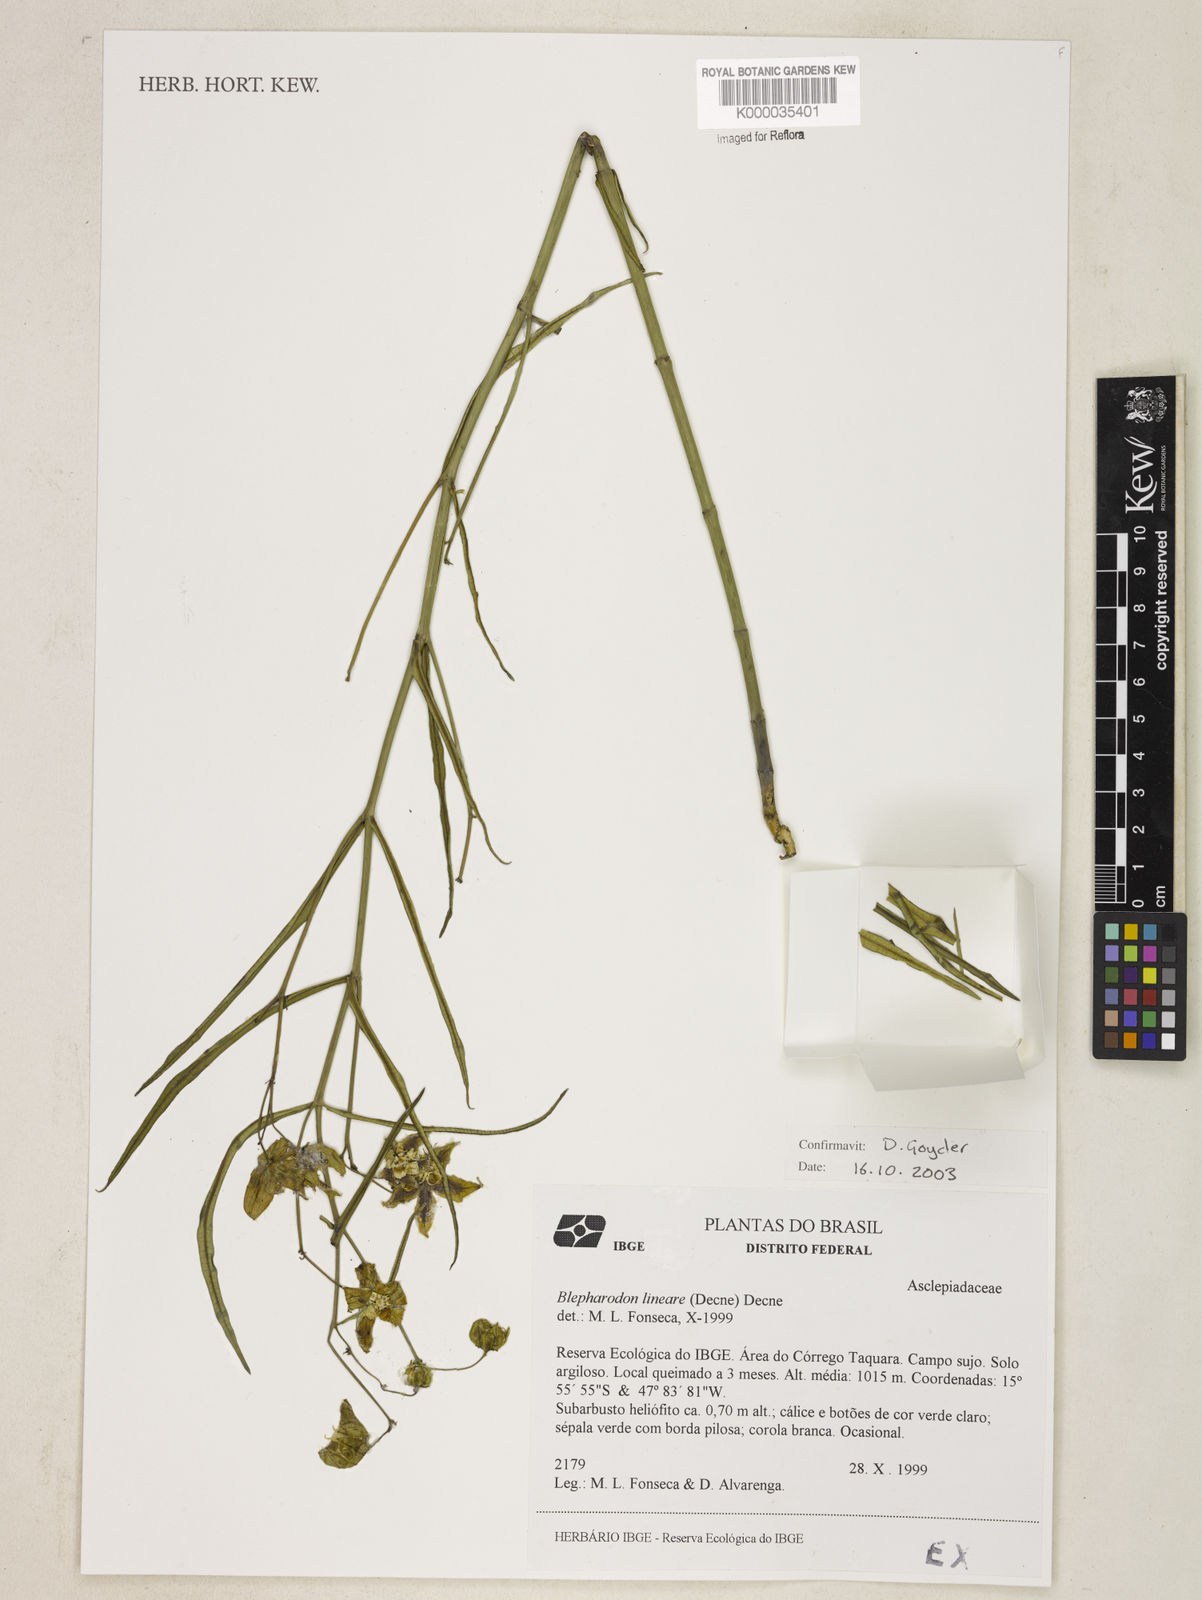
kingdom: Plantae
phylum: Tracheophyta
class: Magnoliopsida
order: Gentianales
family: Apocynaceae
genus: Blepharodon
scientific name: Blepharodon lineare
